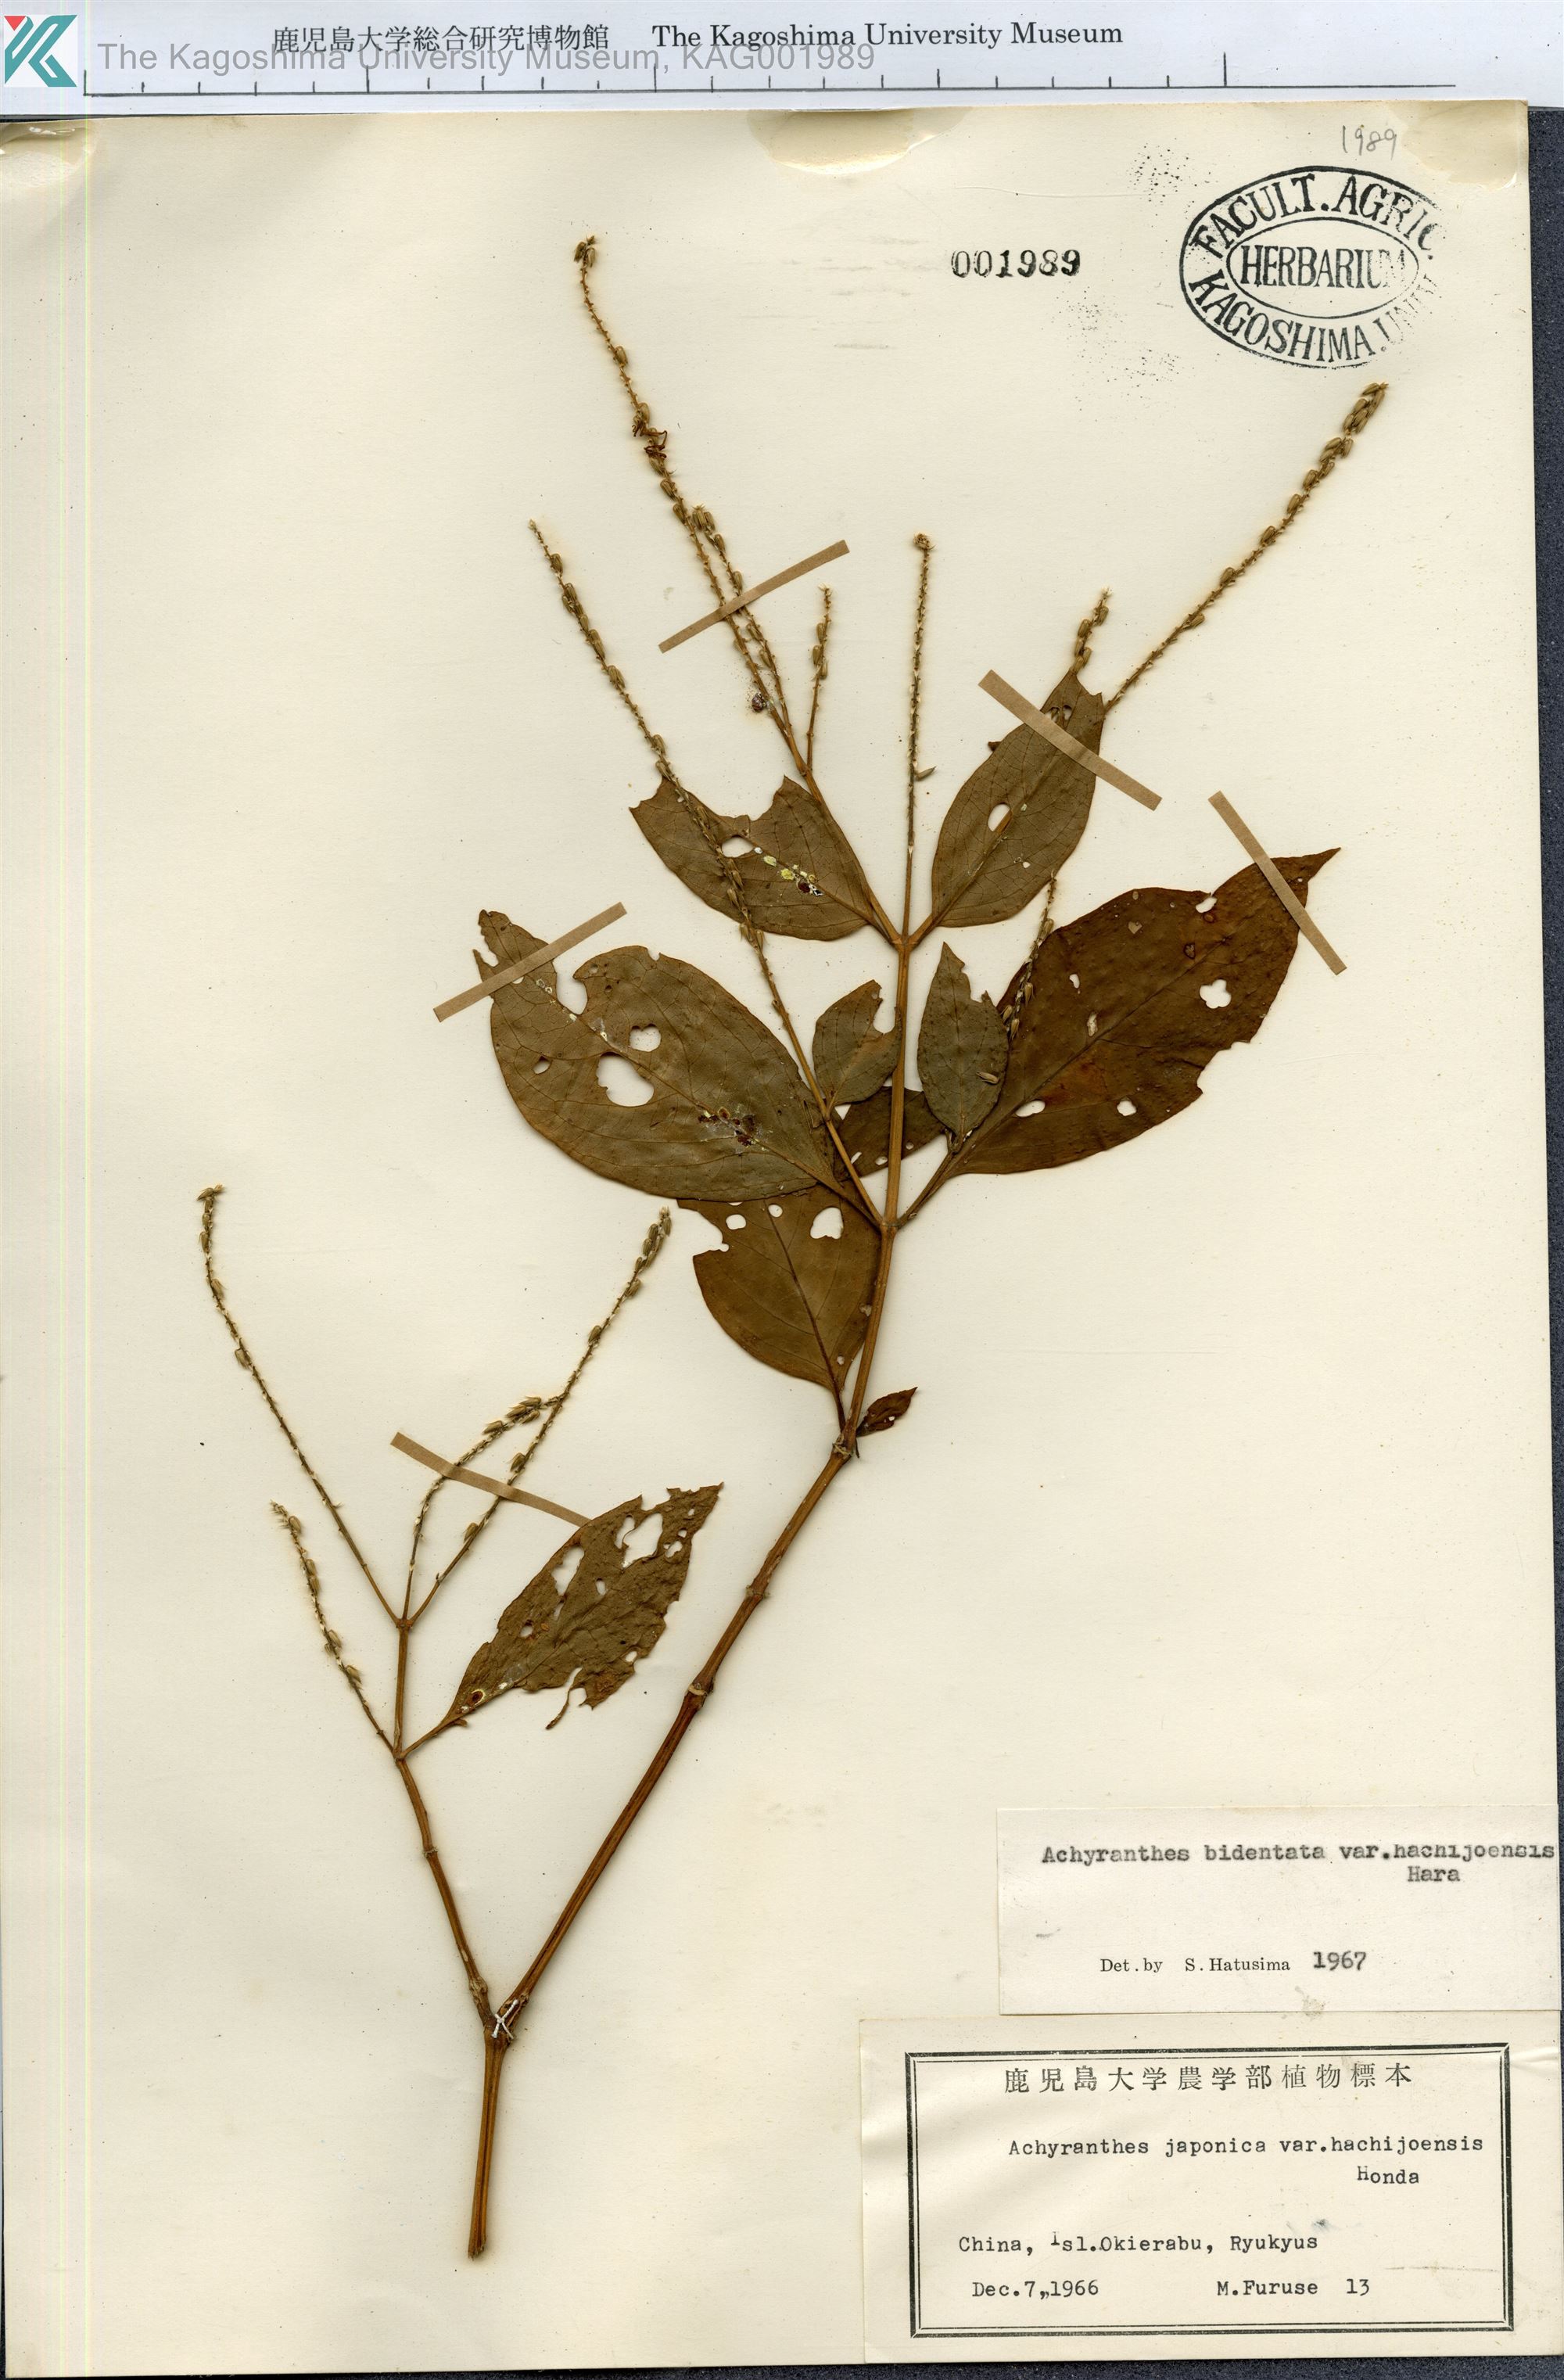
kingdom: Plantae
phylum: Tracheophyta
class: Magnoliopsida
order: Caryophyllales
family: Amaranthaceae
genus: Achyranthes
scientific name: Achyranthes bidentata
